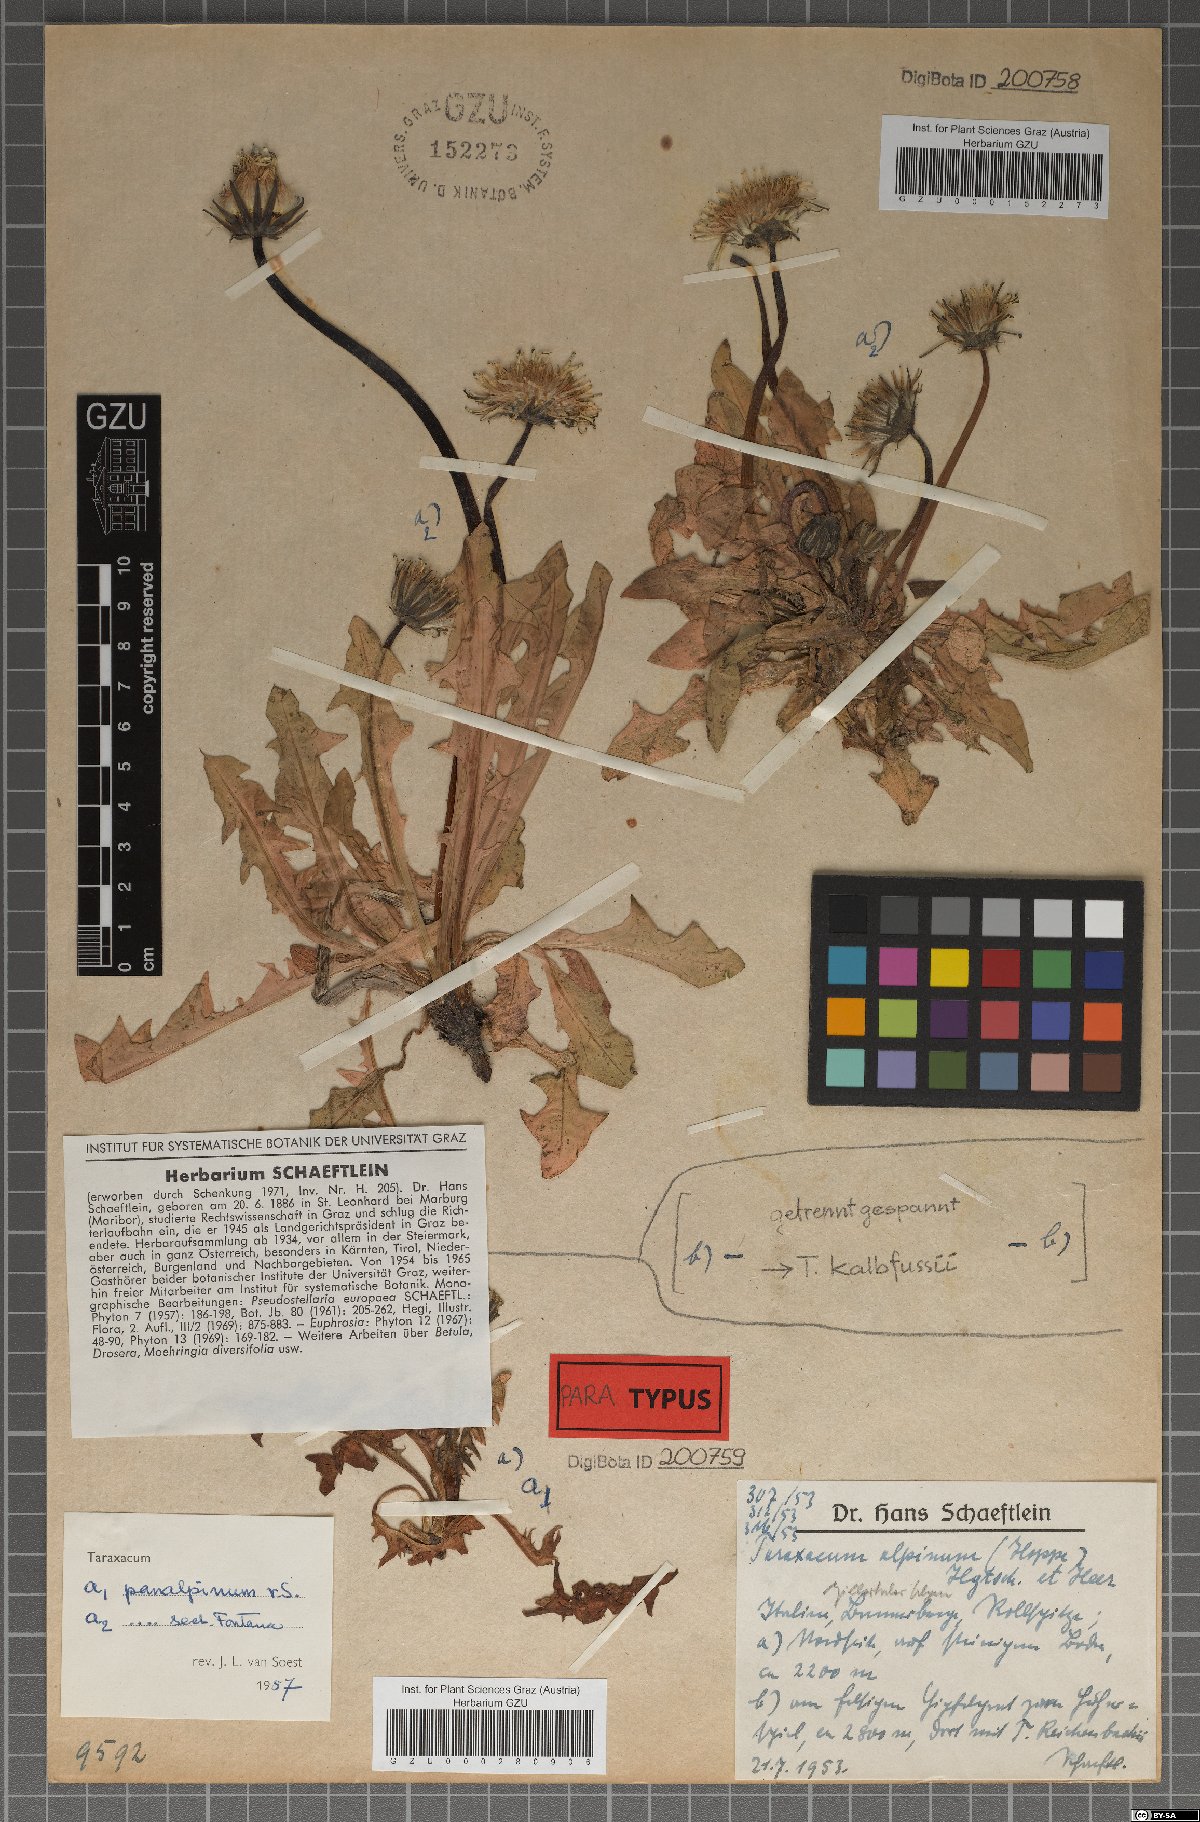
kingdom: Plantae
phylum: Tracheophyta
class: Magnoliopsida
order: Asterales
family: Asteraceae
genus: Taraxacum
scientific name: Taraxacum panalpinum
